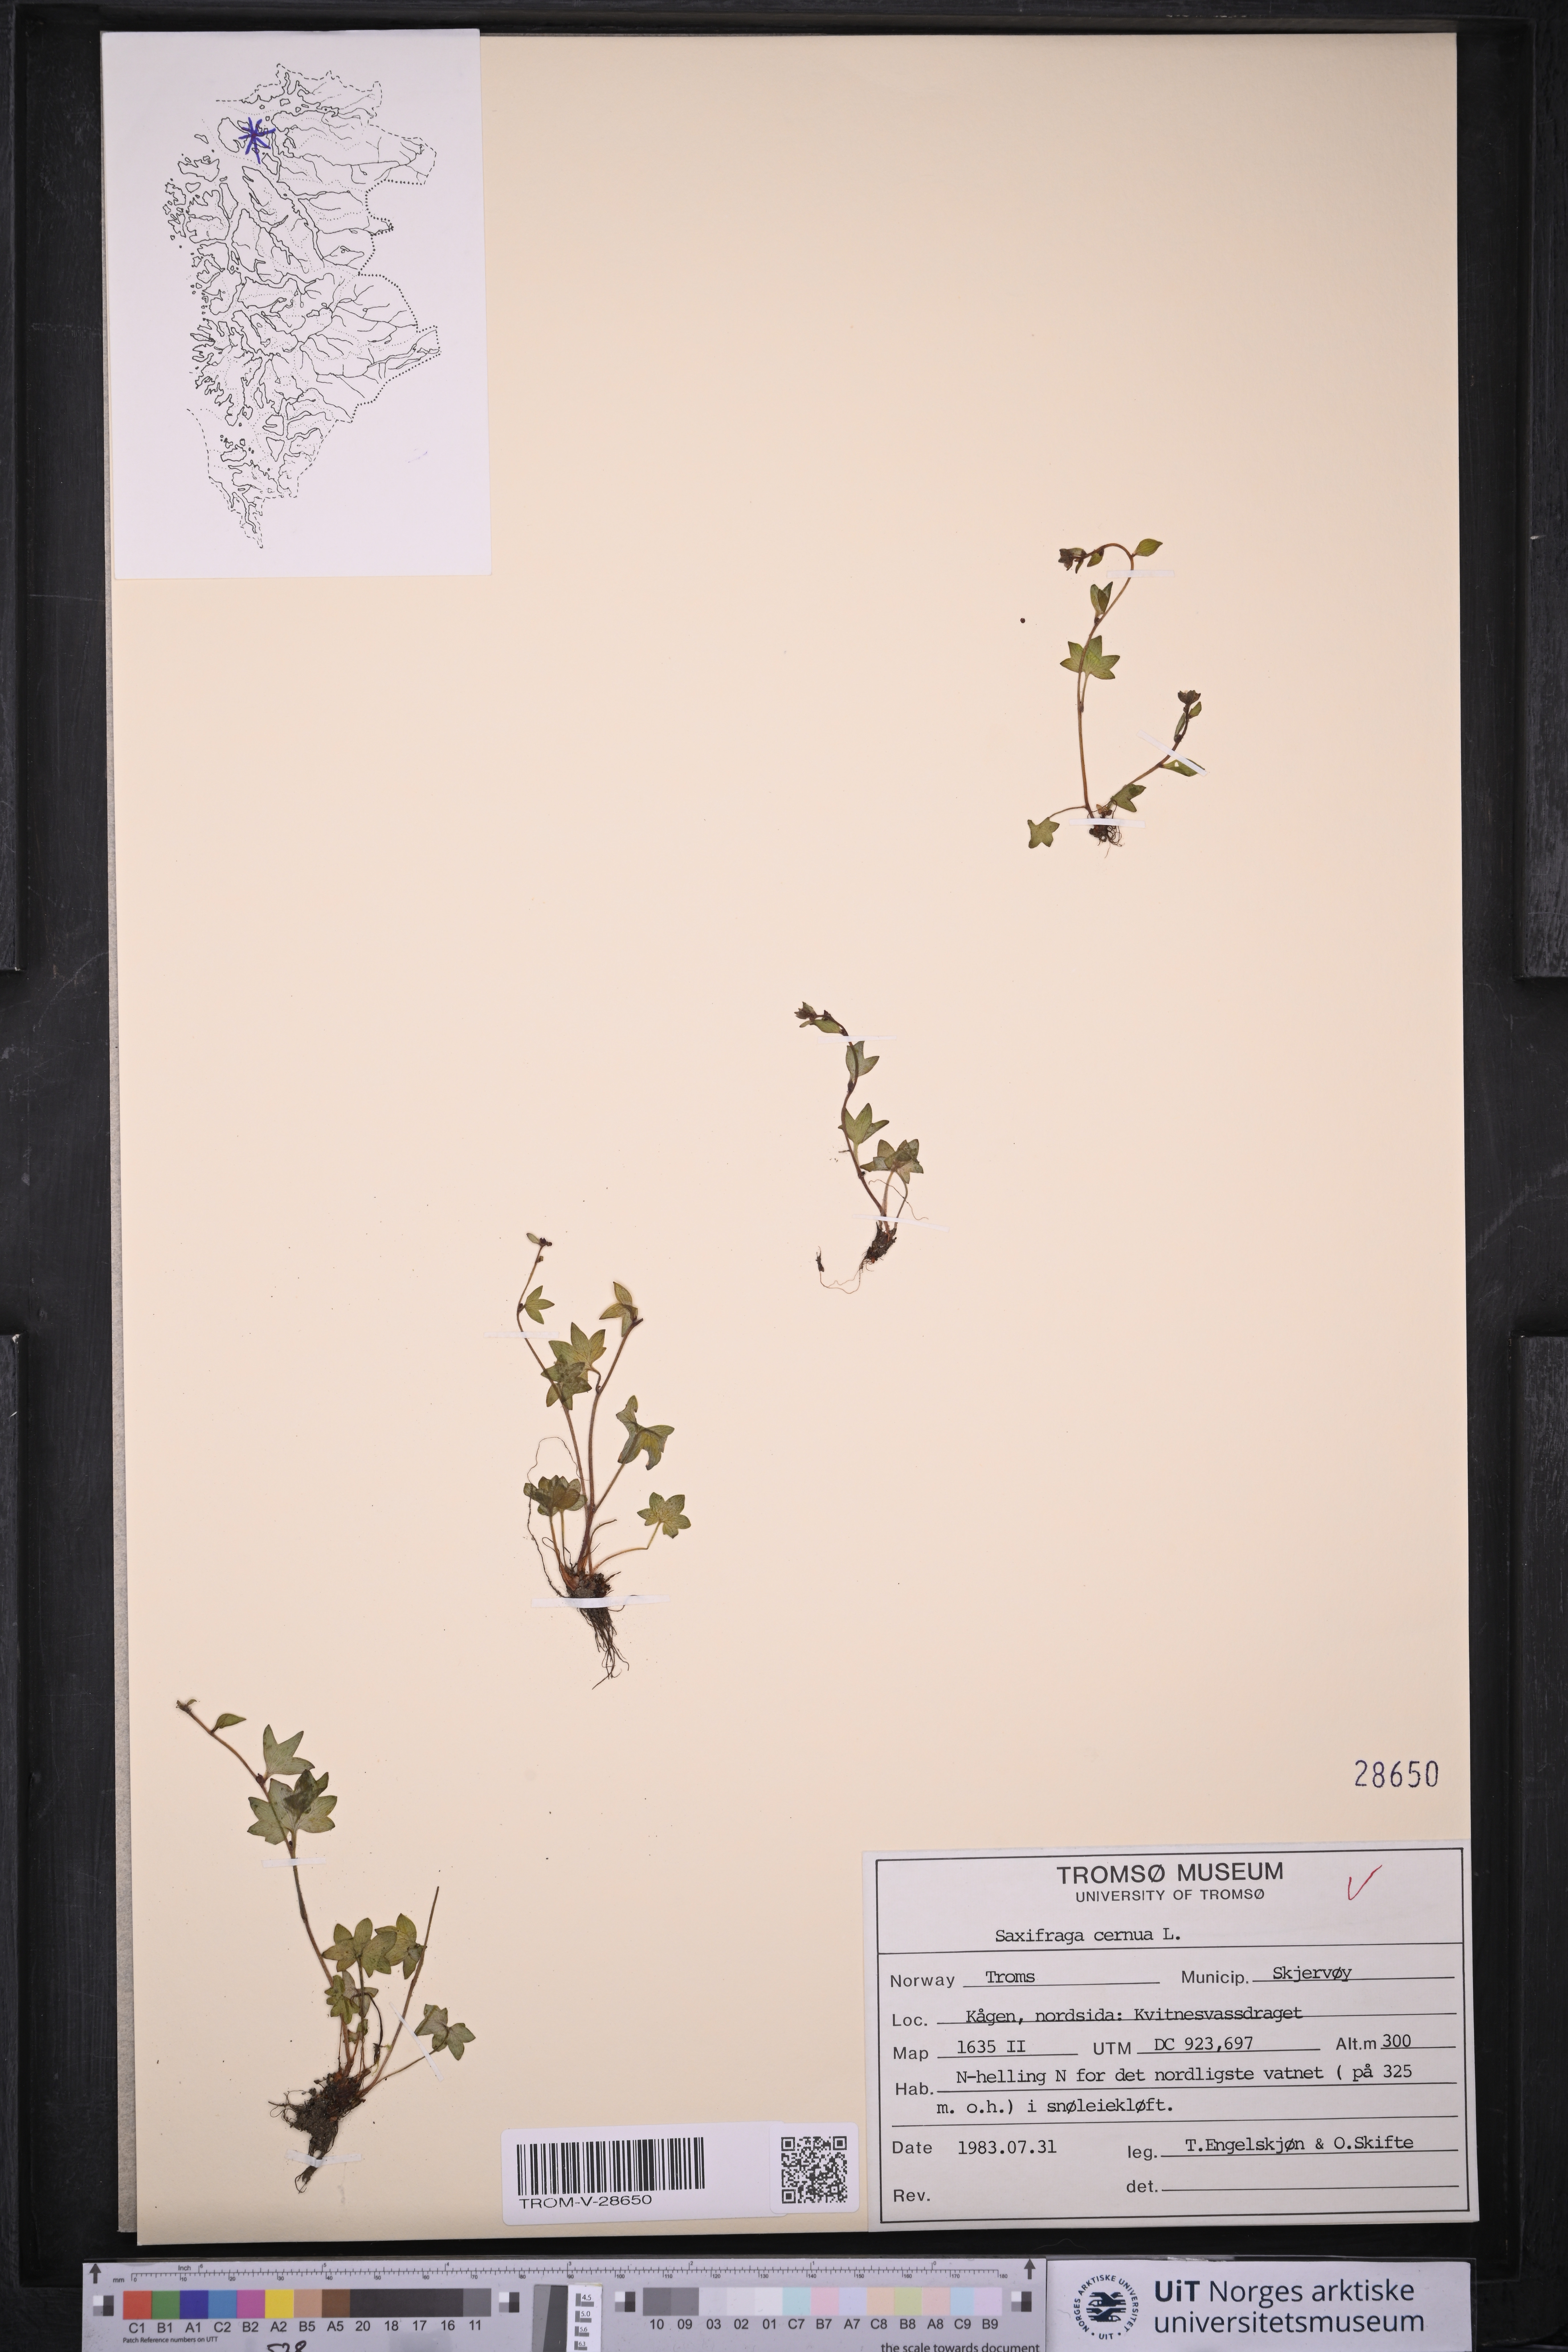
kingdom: Plantae
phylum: Tracheophyta
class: Magnoliopsida
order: Saxifragales
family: Saxifragaceae
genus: Saxifraga
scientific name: Saxifraga cernua
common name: Drooping saxifrage
